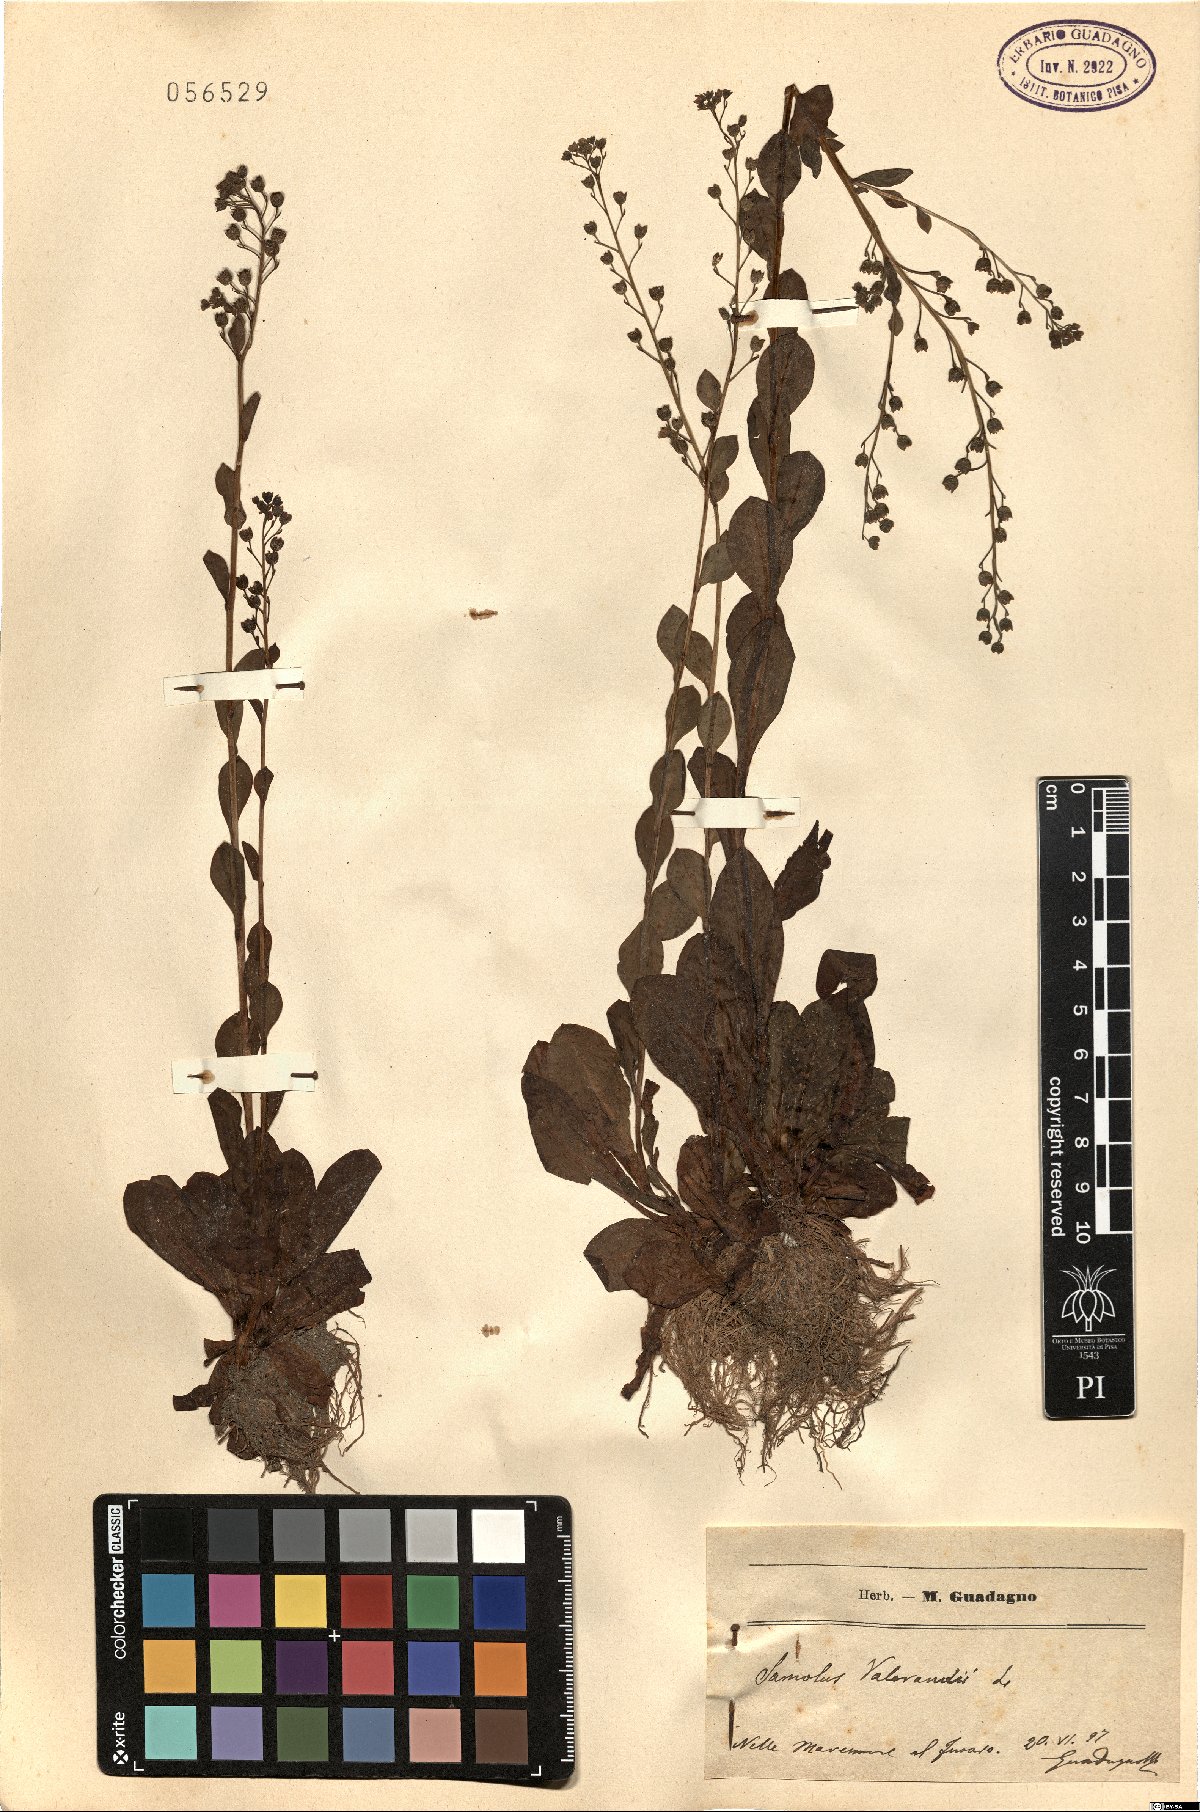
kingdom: Plantae
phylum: Tracheophyta
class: Magnoliopsida
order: Ericales
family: Primulaceae
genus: Samolus
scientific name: Samolus valerandi
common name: Brookweed
